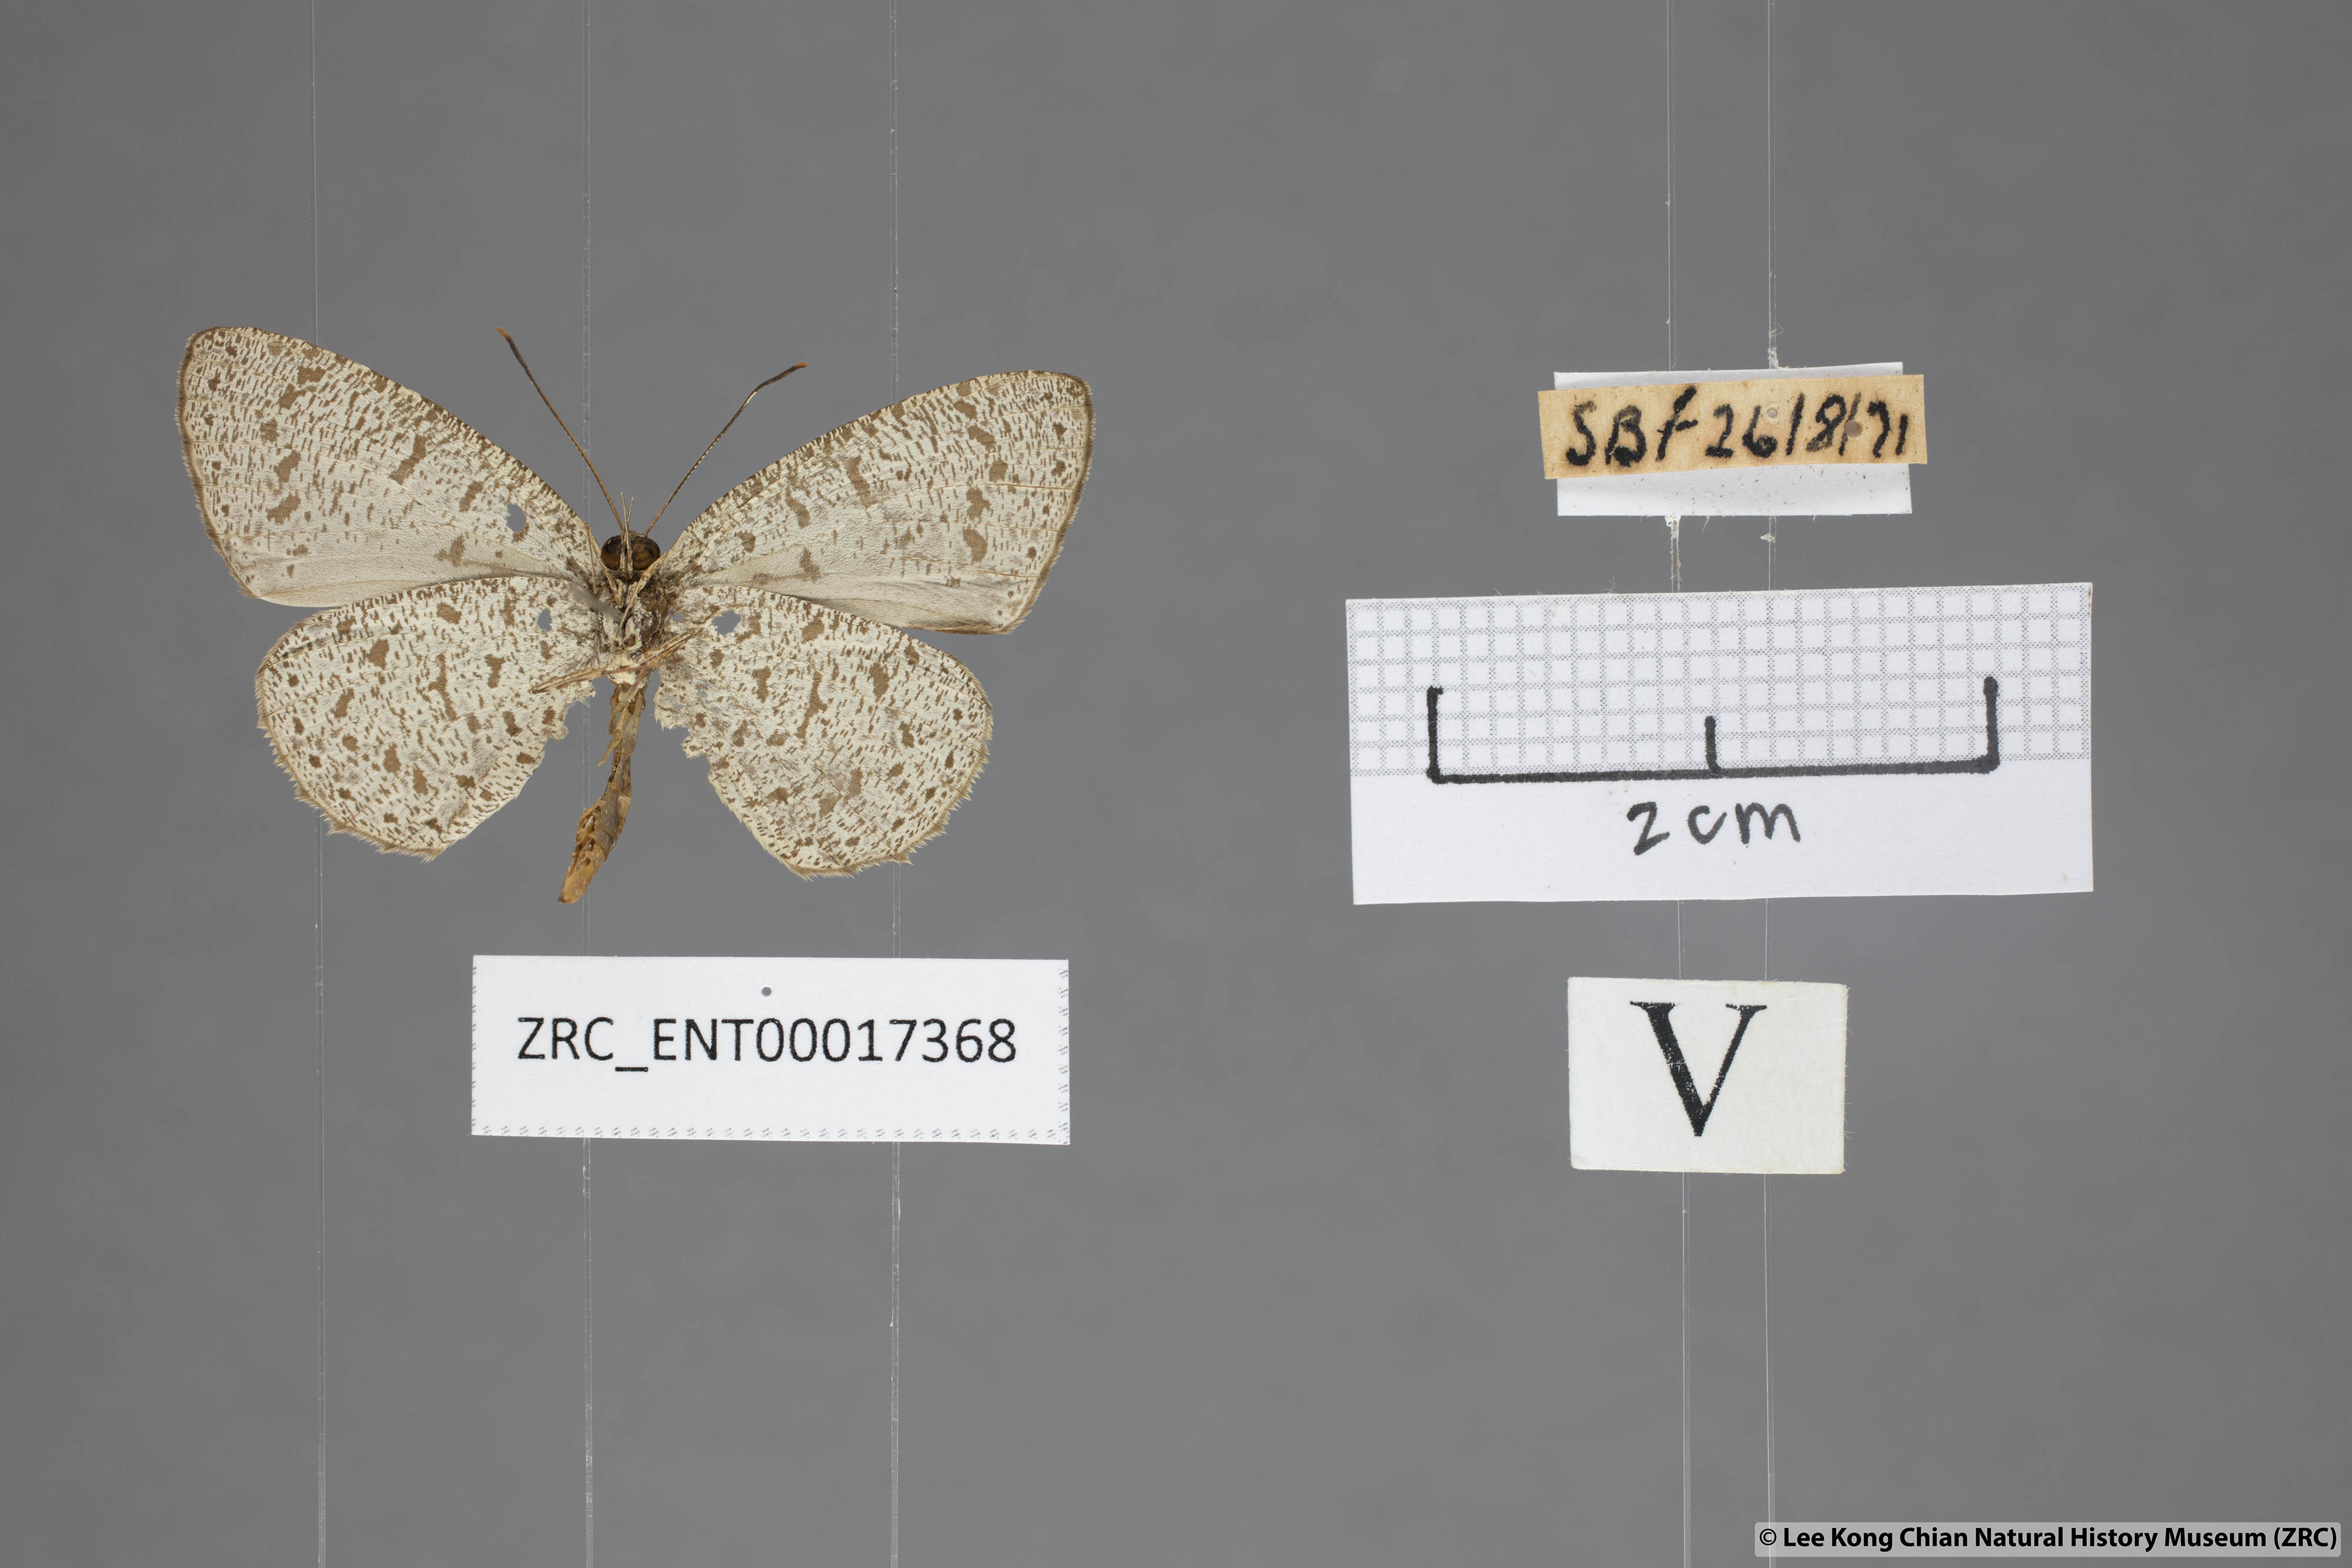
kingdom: Animalia
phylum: Arthropoda
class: Insecta
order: Lepidoptera
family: Lycaenidae
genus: Allotinus
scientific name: Allotinus unicolor
